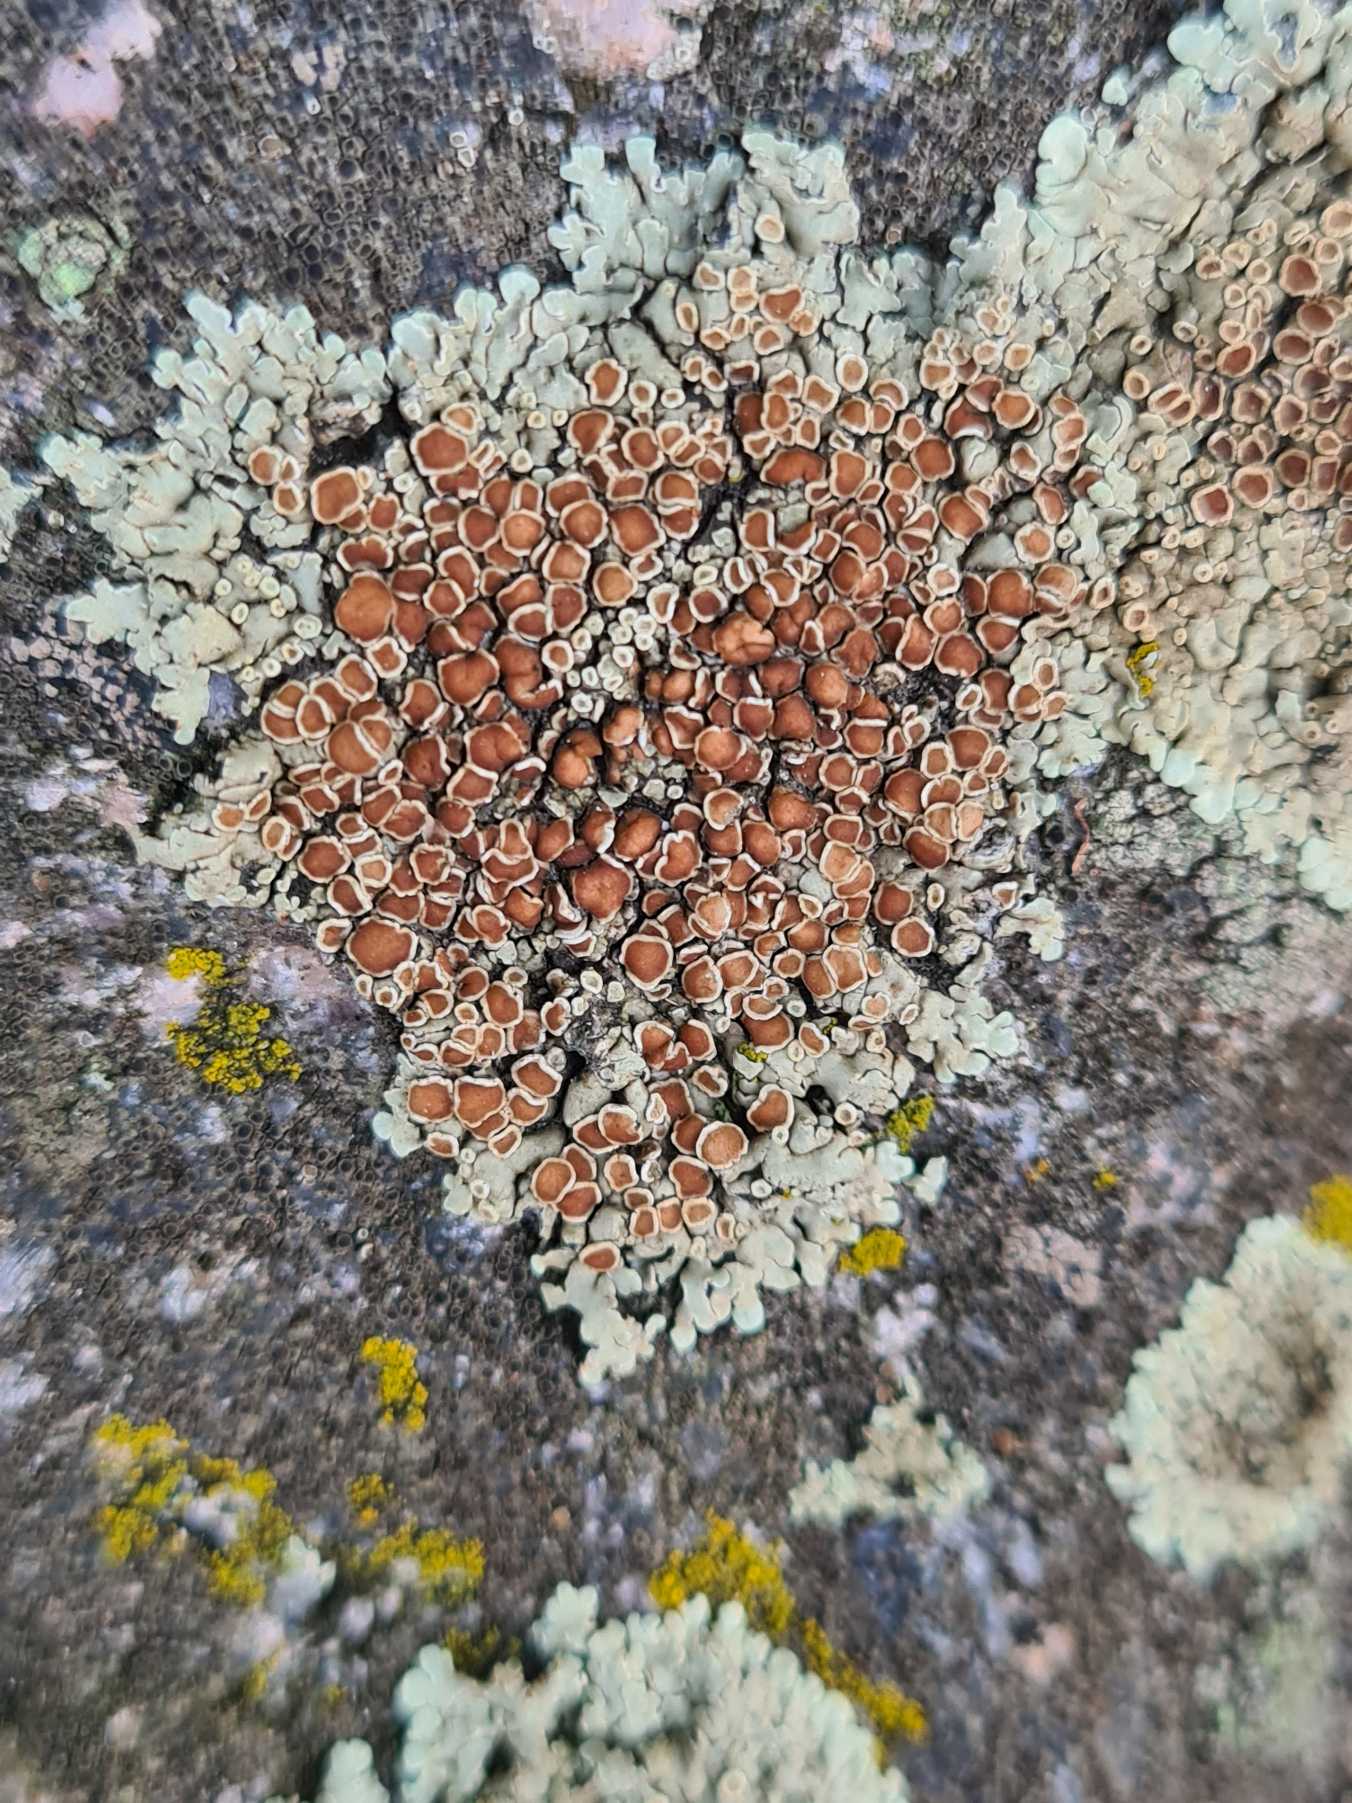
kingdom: Fungi
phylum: Ascomycota
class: Lecanoromycetes
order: Lecanorales
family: Lecanoraceae
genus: Protoparmeliopsis
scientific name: Protoparmeliopsis muralis
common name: Randfliget kantskivelav
